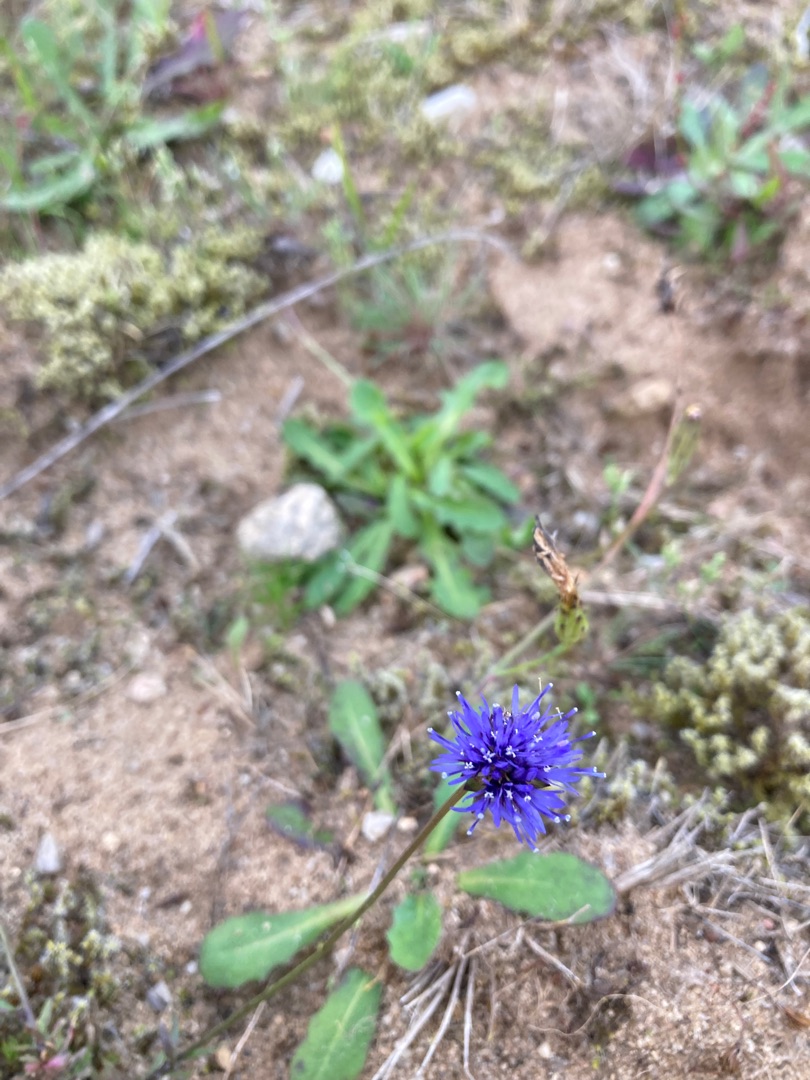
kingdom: Plantae
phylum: Tracheophyta
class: Magnoliopsida
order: Asterales
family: Campanulaceae
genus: Jasione
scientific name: Jasione montana
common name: Blåmunke
